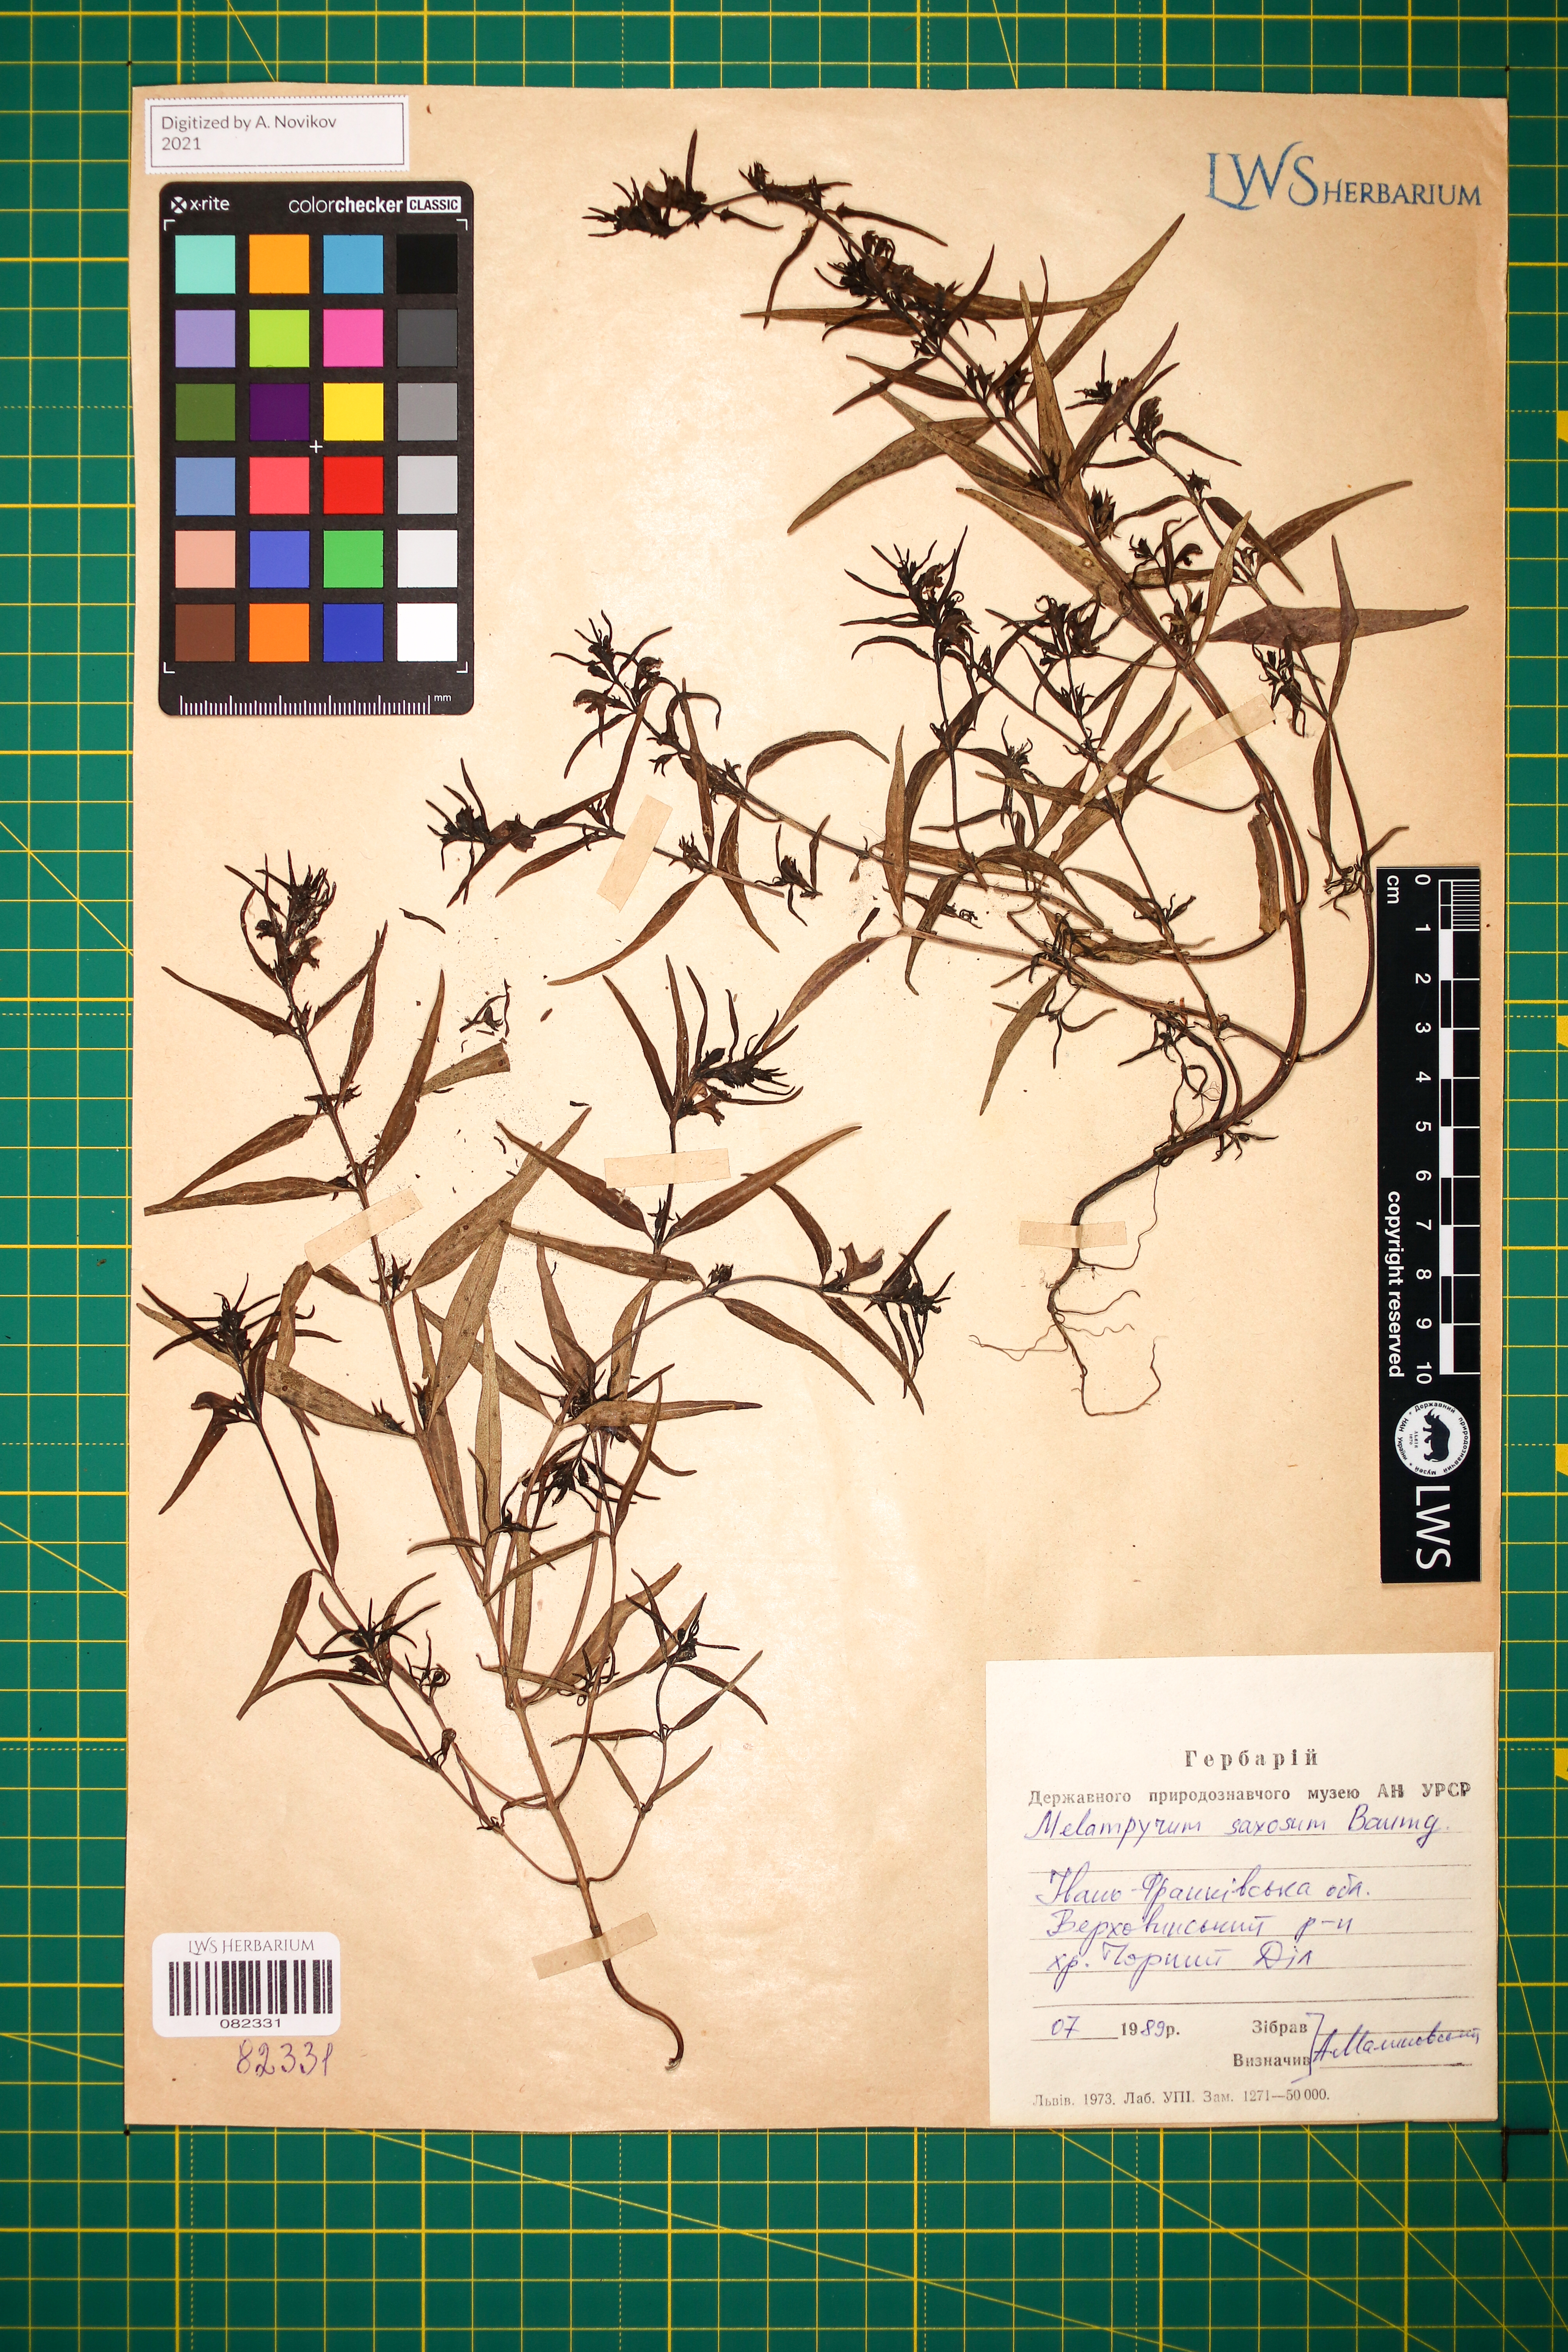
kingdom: Plantae
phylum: Tracheophyta
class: Magnoliopsida
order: Lamiales
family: Orobanchaceae
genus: Melampyrum
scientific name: Melampyrum saxosum
